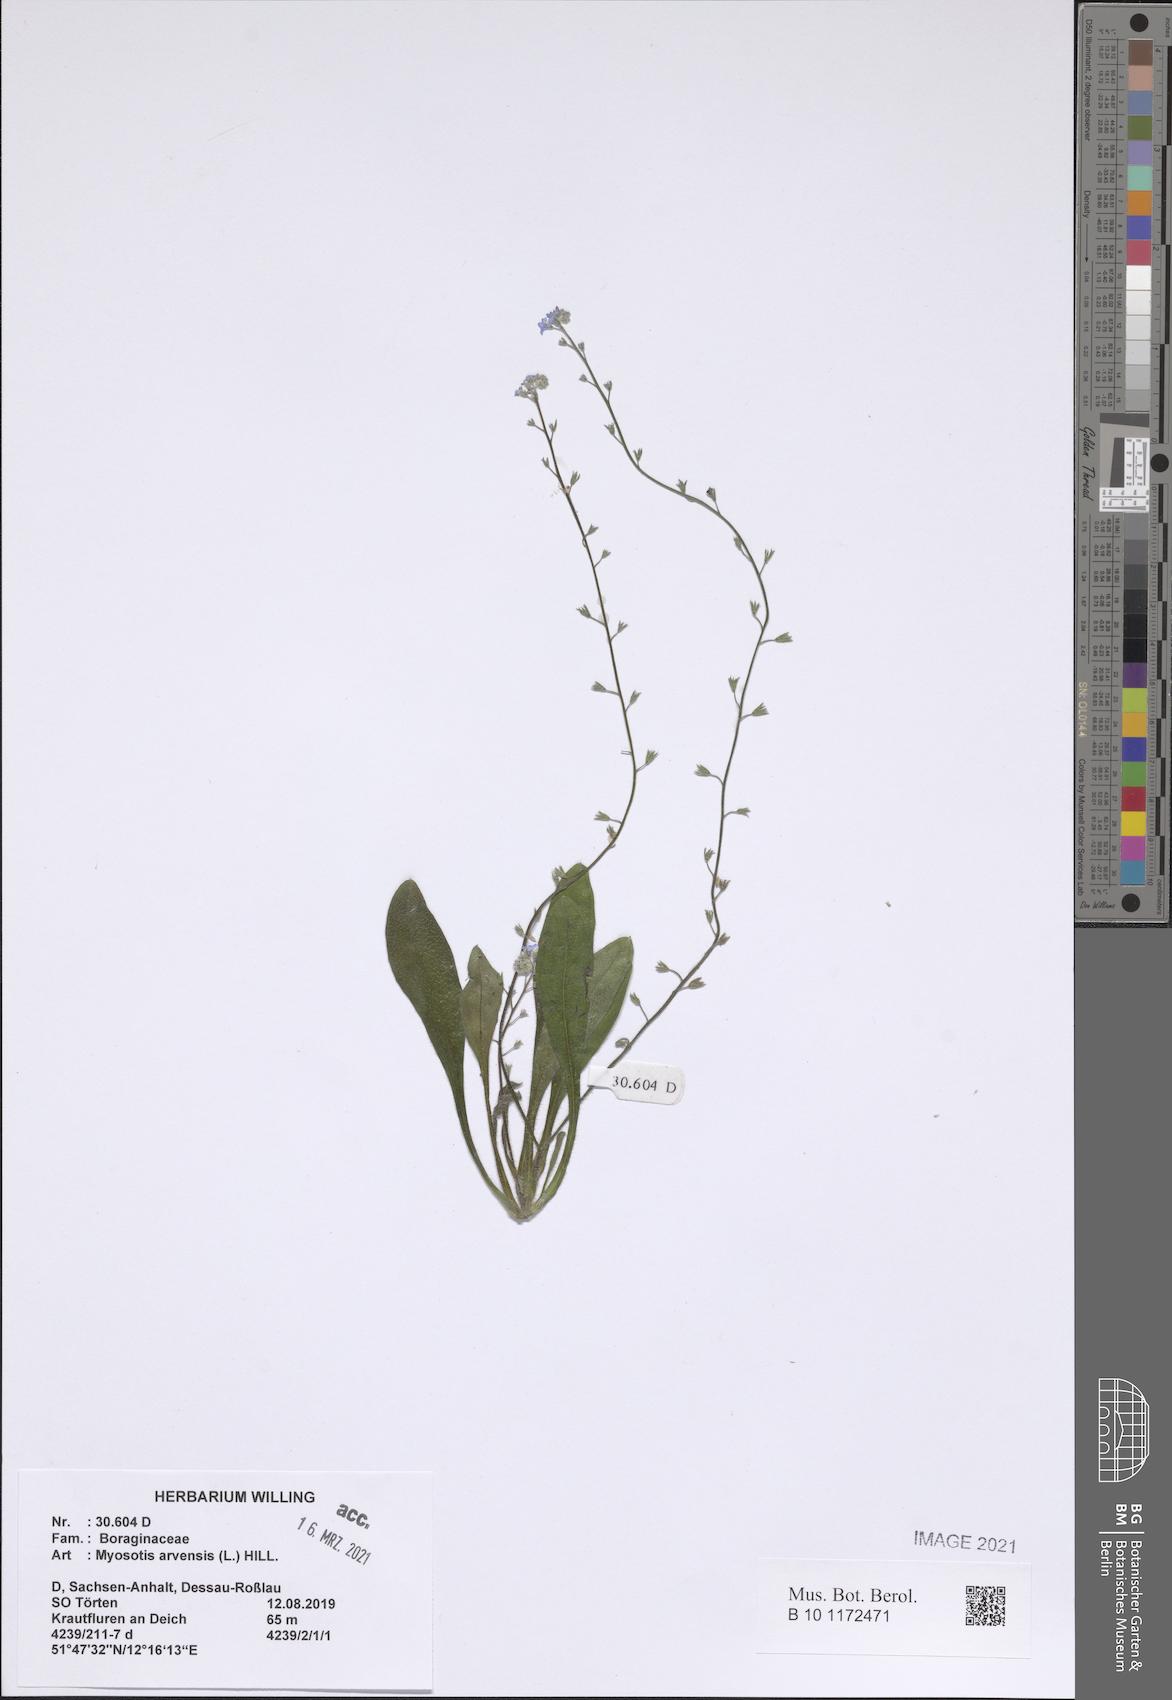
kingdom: Plantae
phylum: Tracheophyta
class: Magnoliopsida
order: Boraginales
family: Boraginaceae
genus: Myosotis
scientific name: Myosotis arvensis
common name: Field forget-me-not
